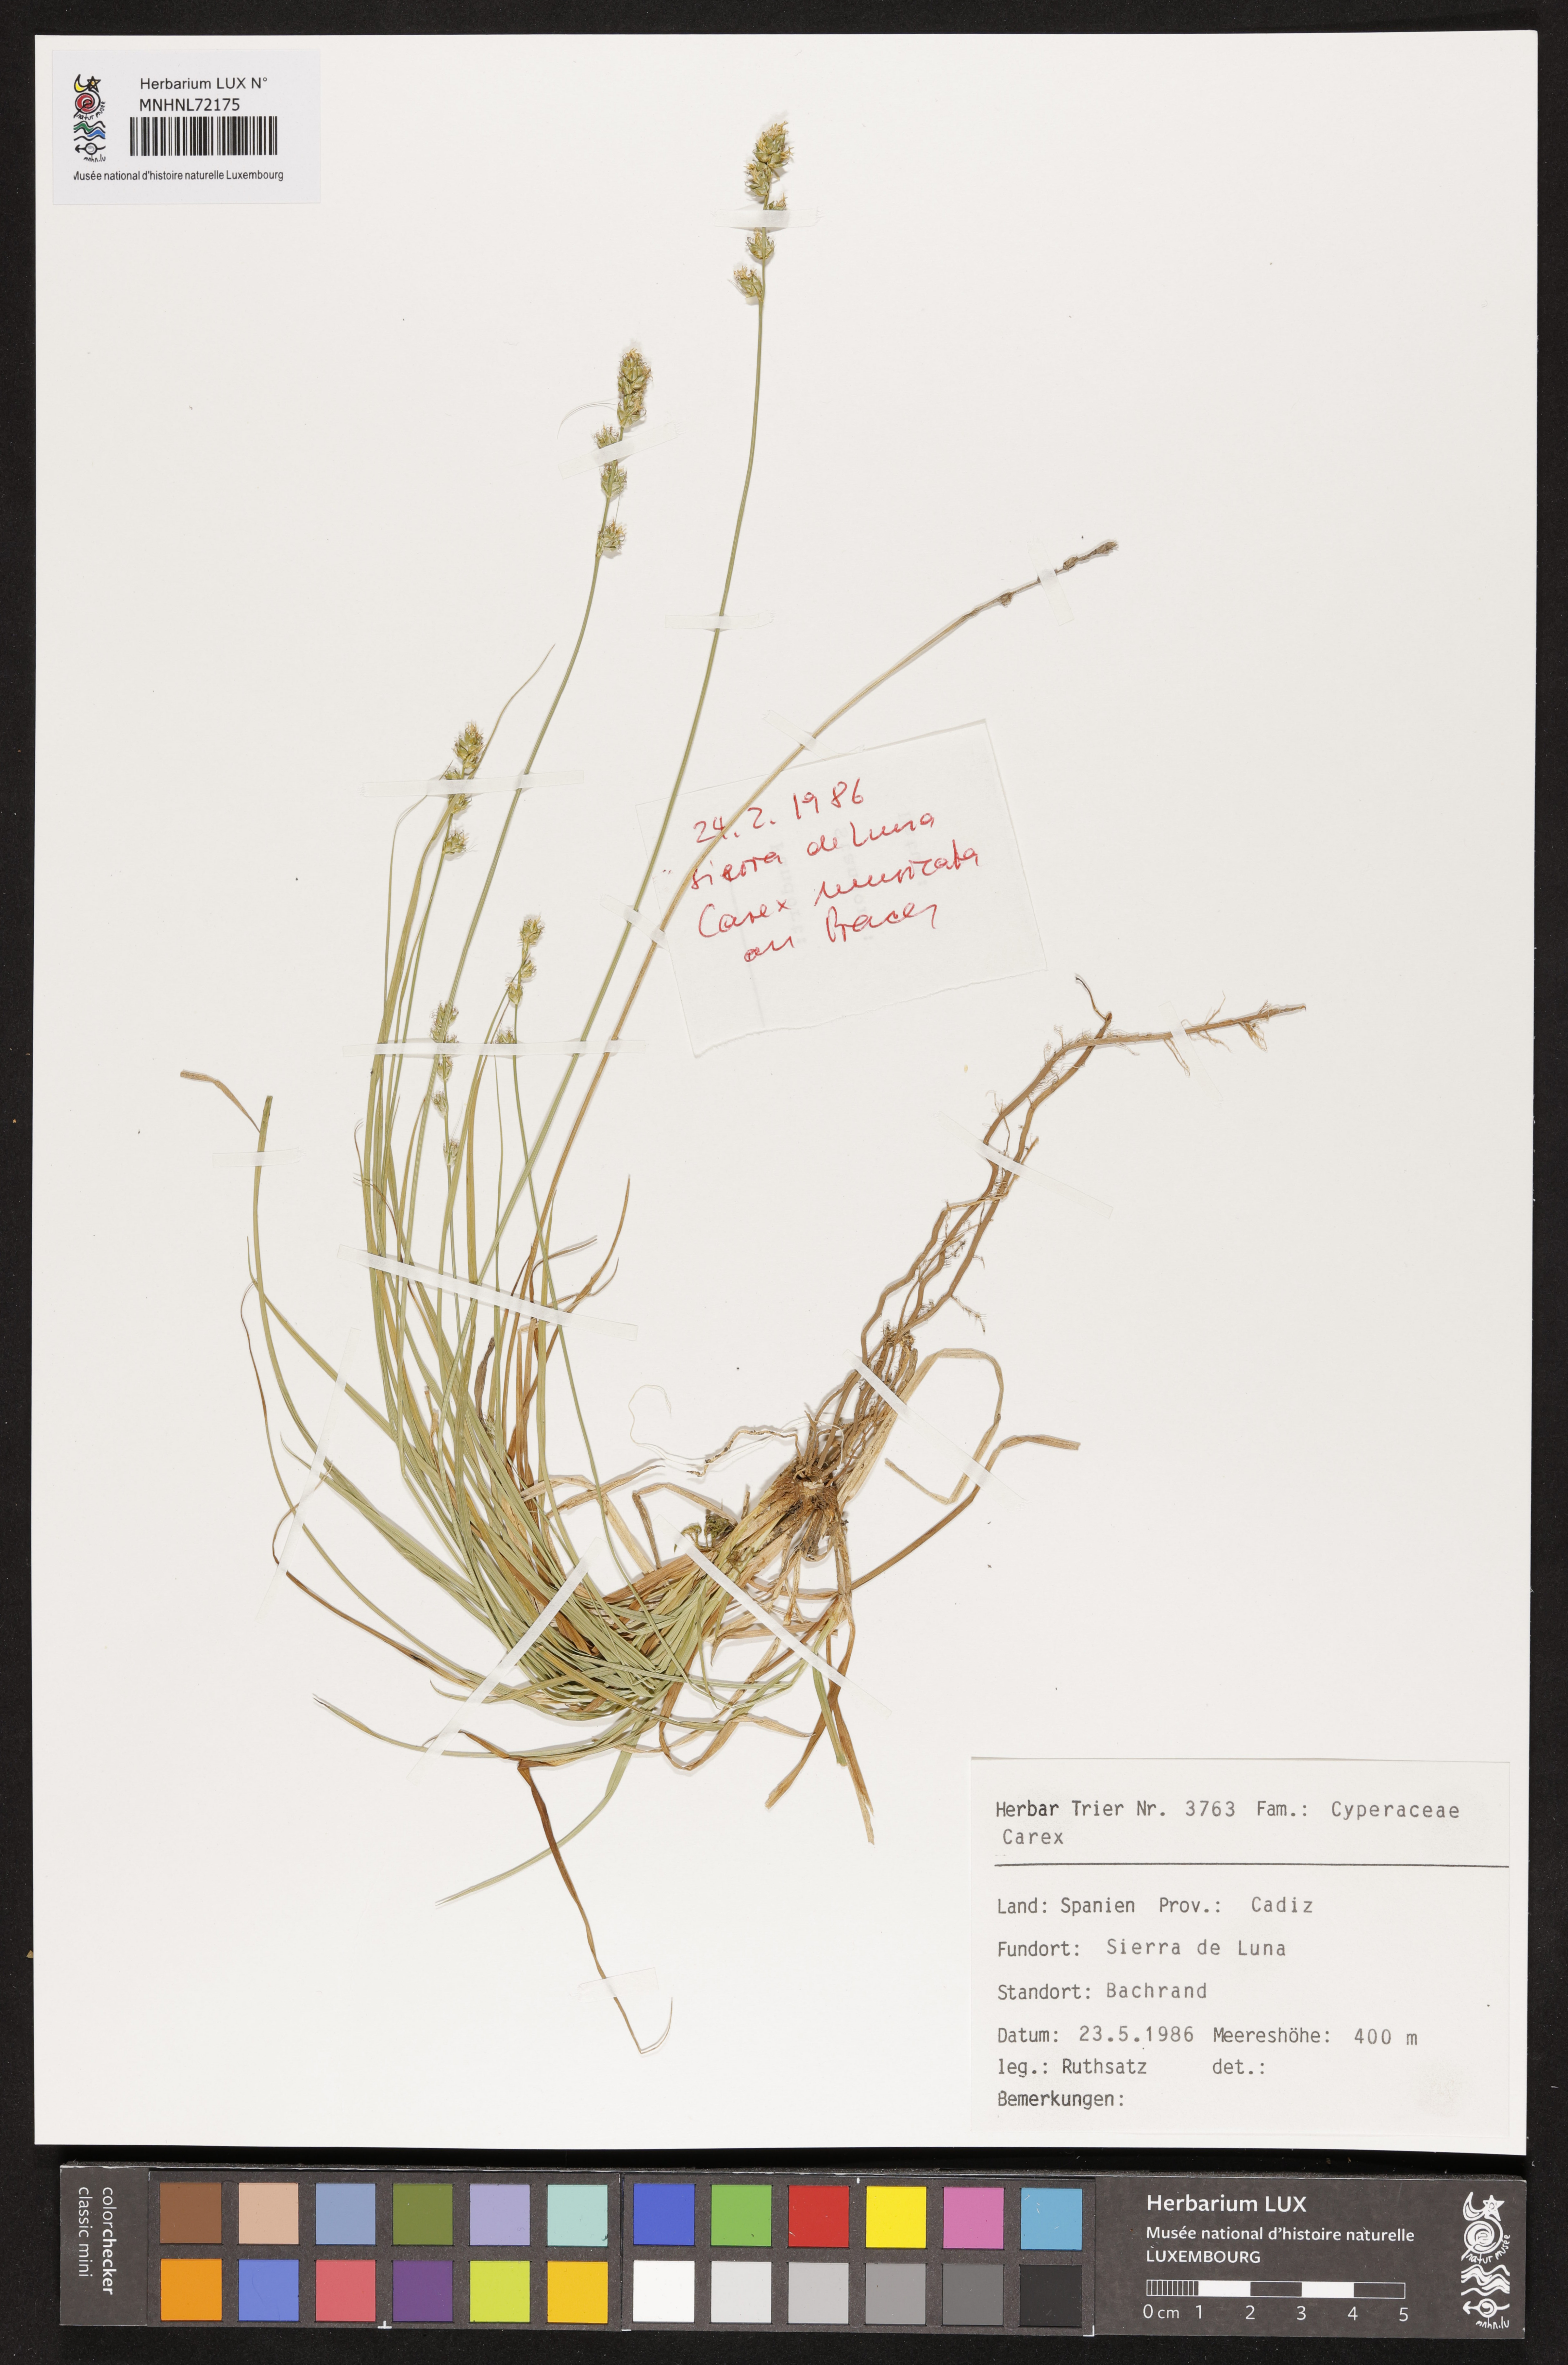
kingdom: Plantae
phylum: Tracheophyta
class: Liliopsida
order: Poales
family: Cyperaceae
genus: Carex
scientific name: Carex
